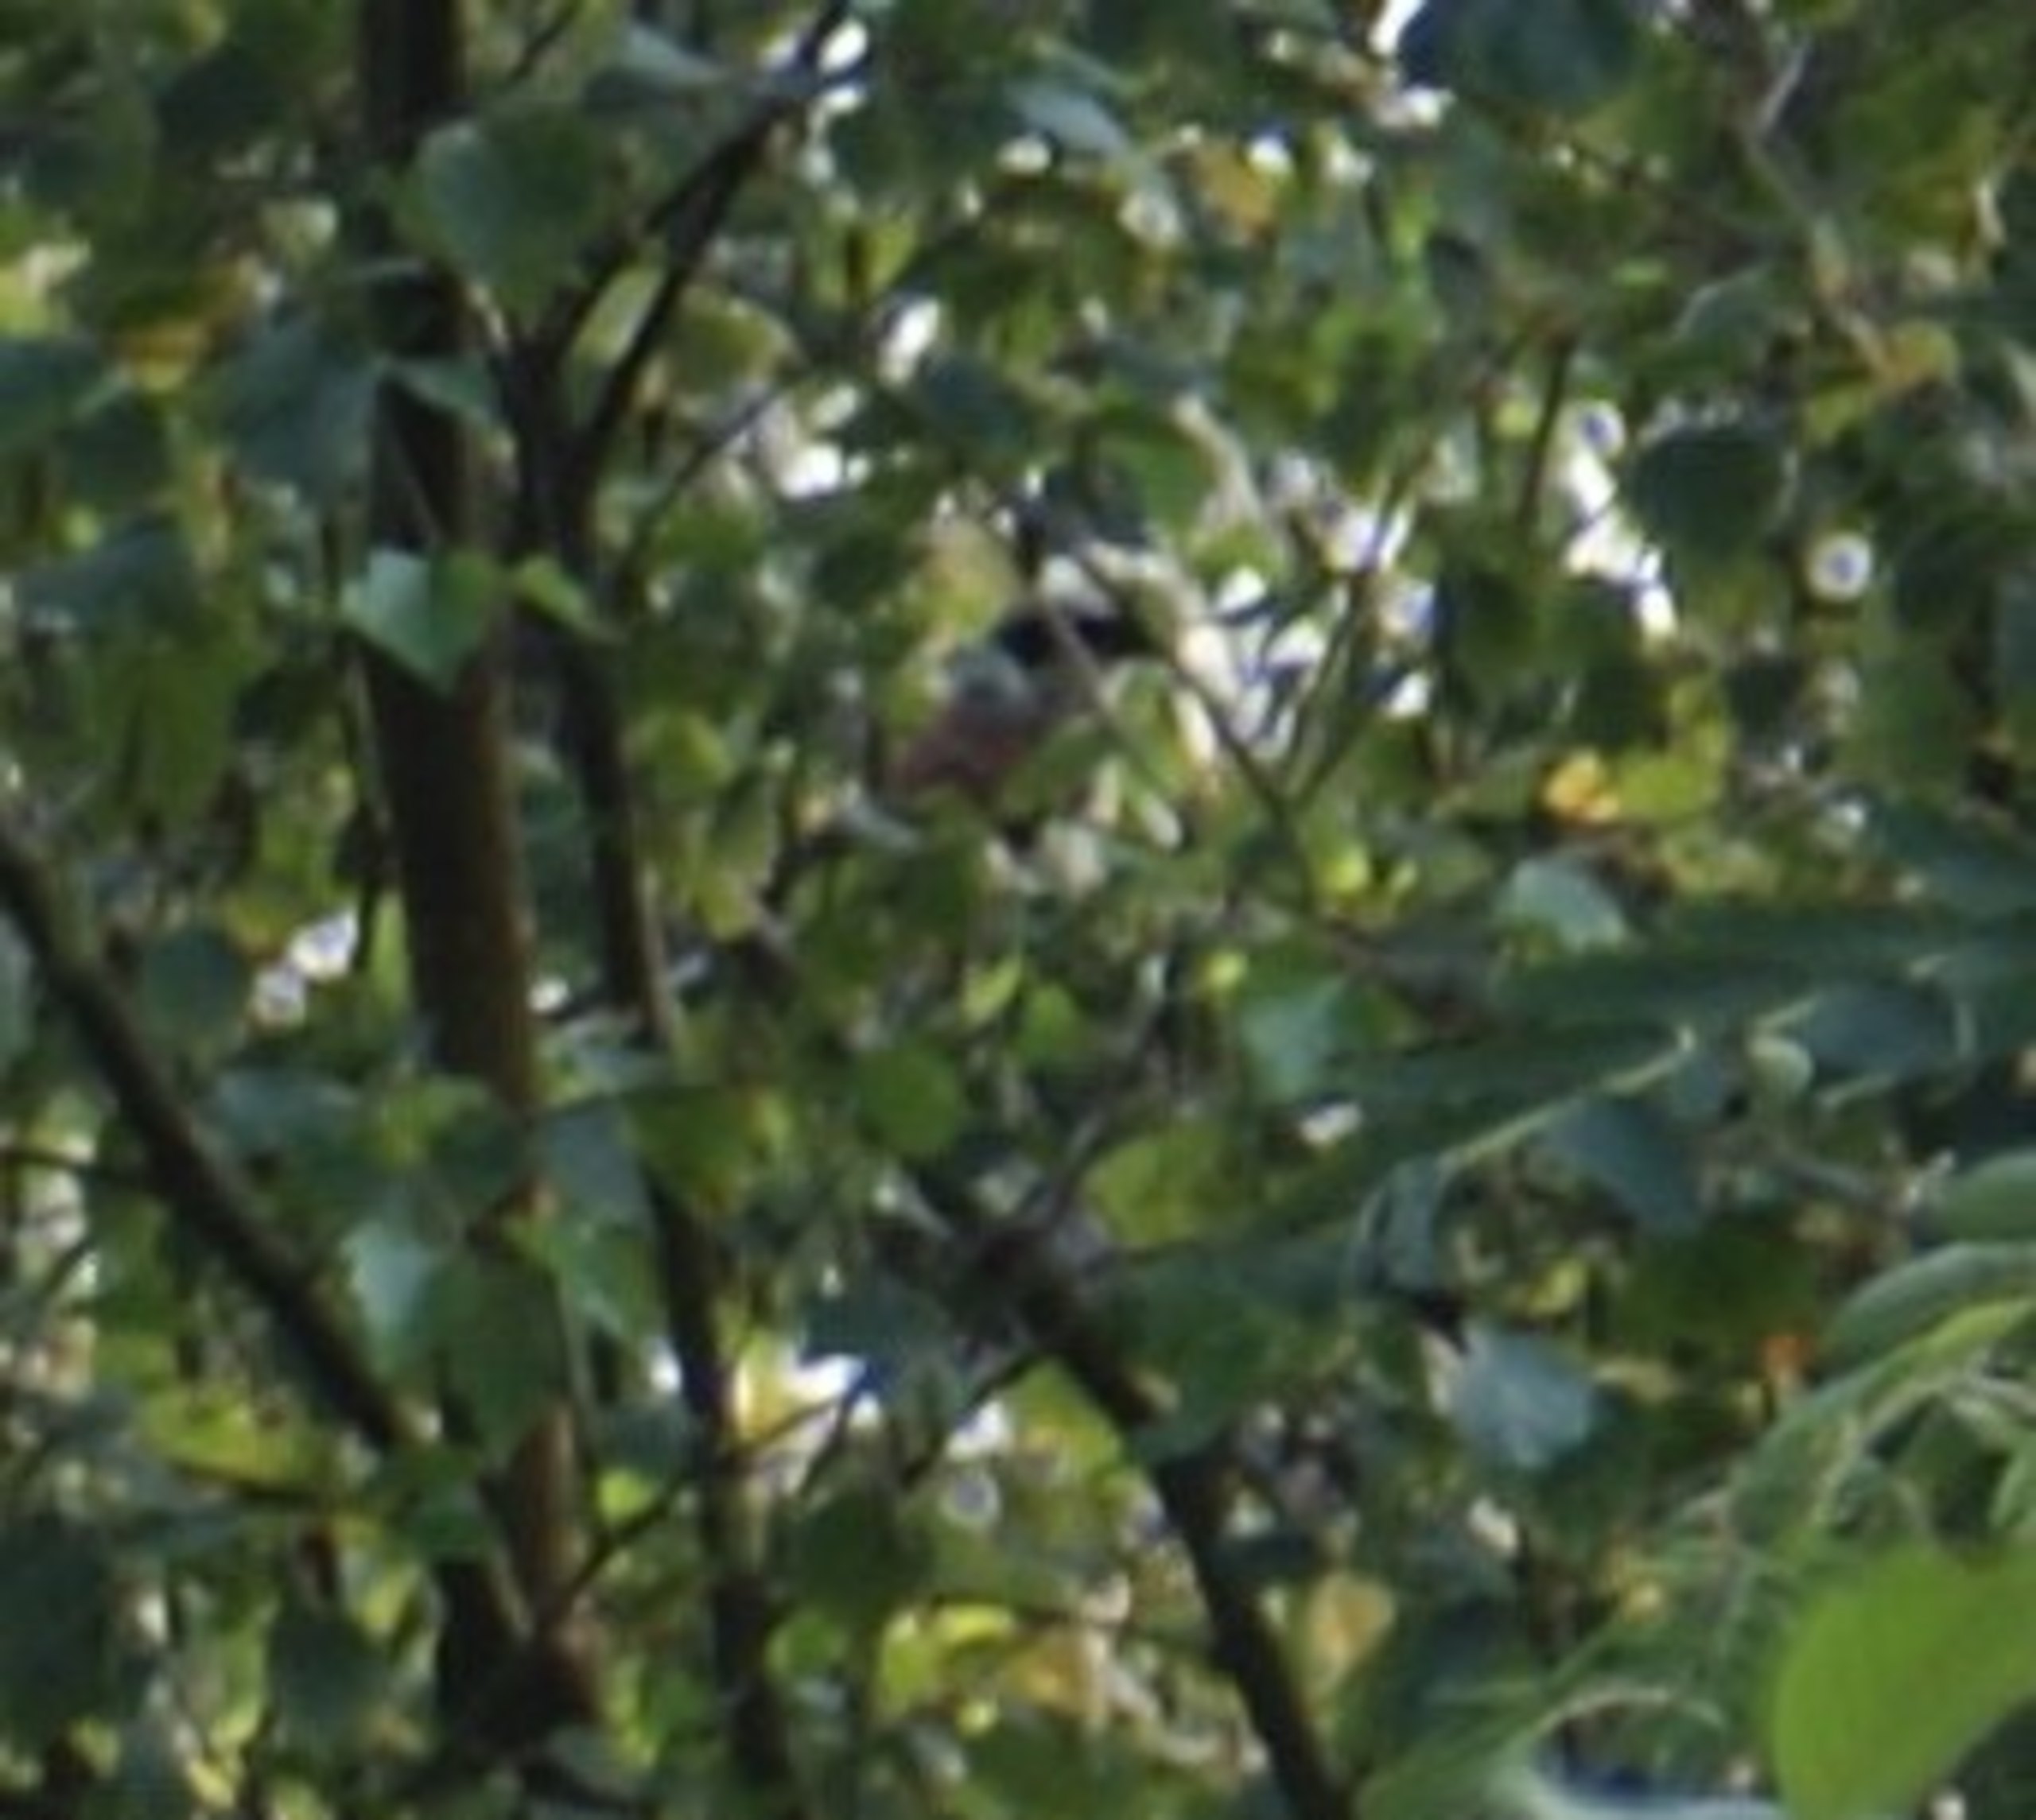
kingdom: Animalia
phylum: Chordata
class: Aves
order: Passeriformes
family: Laniidae
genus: Lanius
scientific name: Lanius collurio
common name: Rødrygget tornskade
